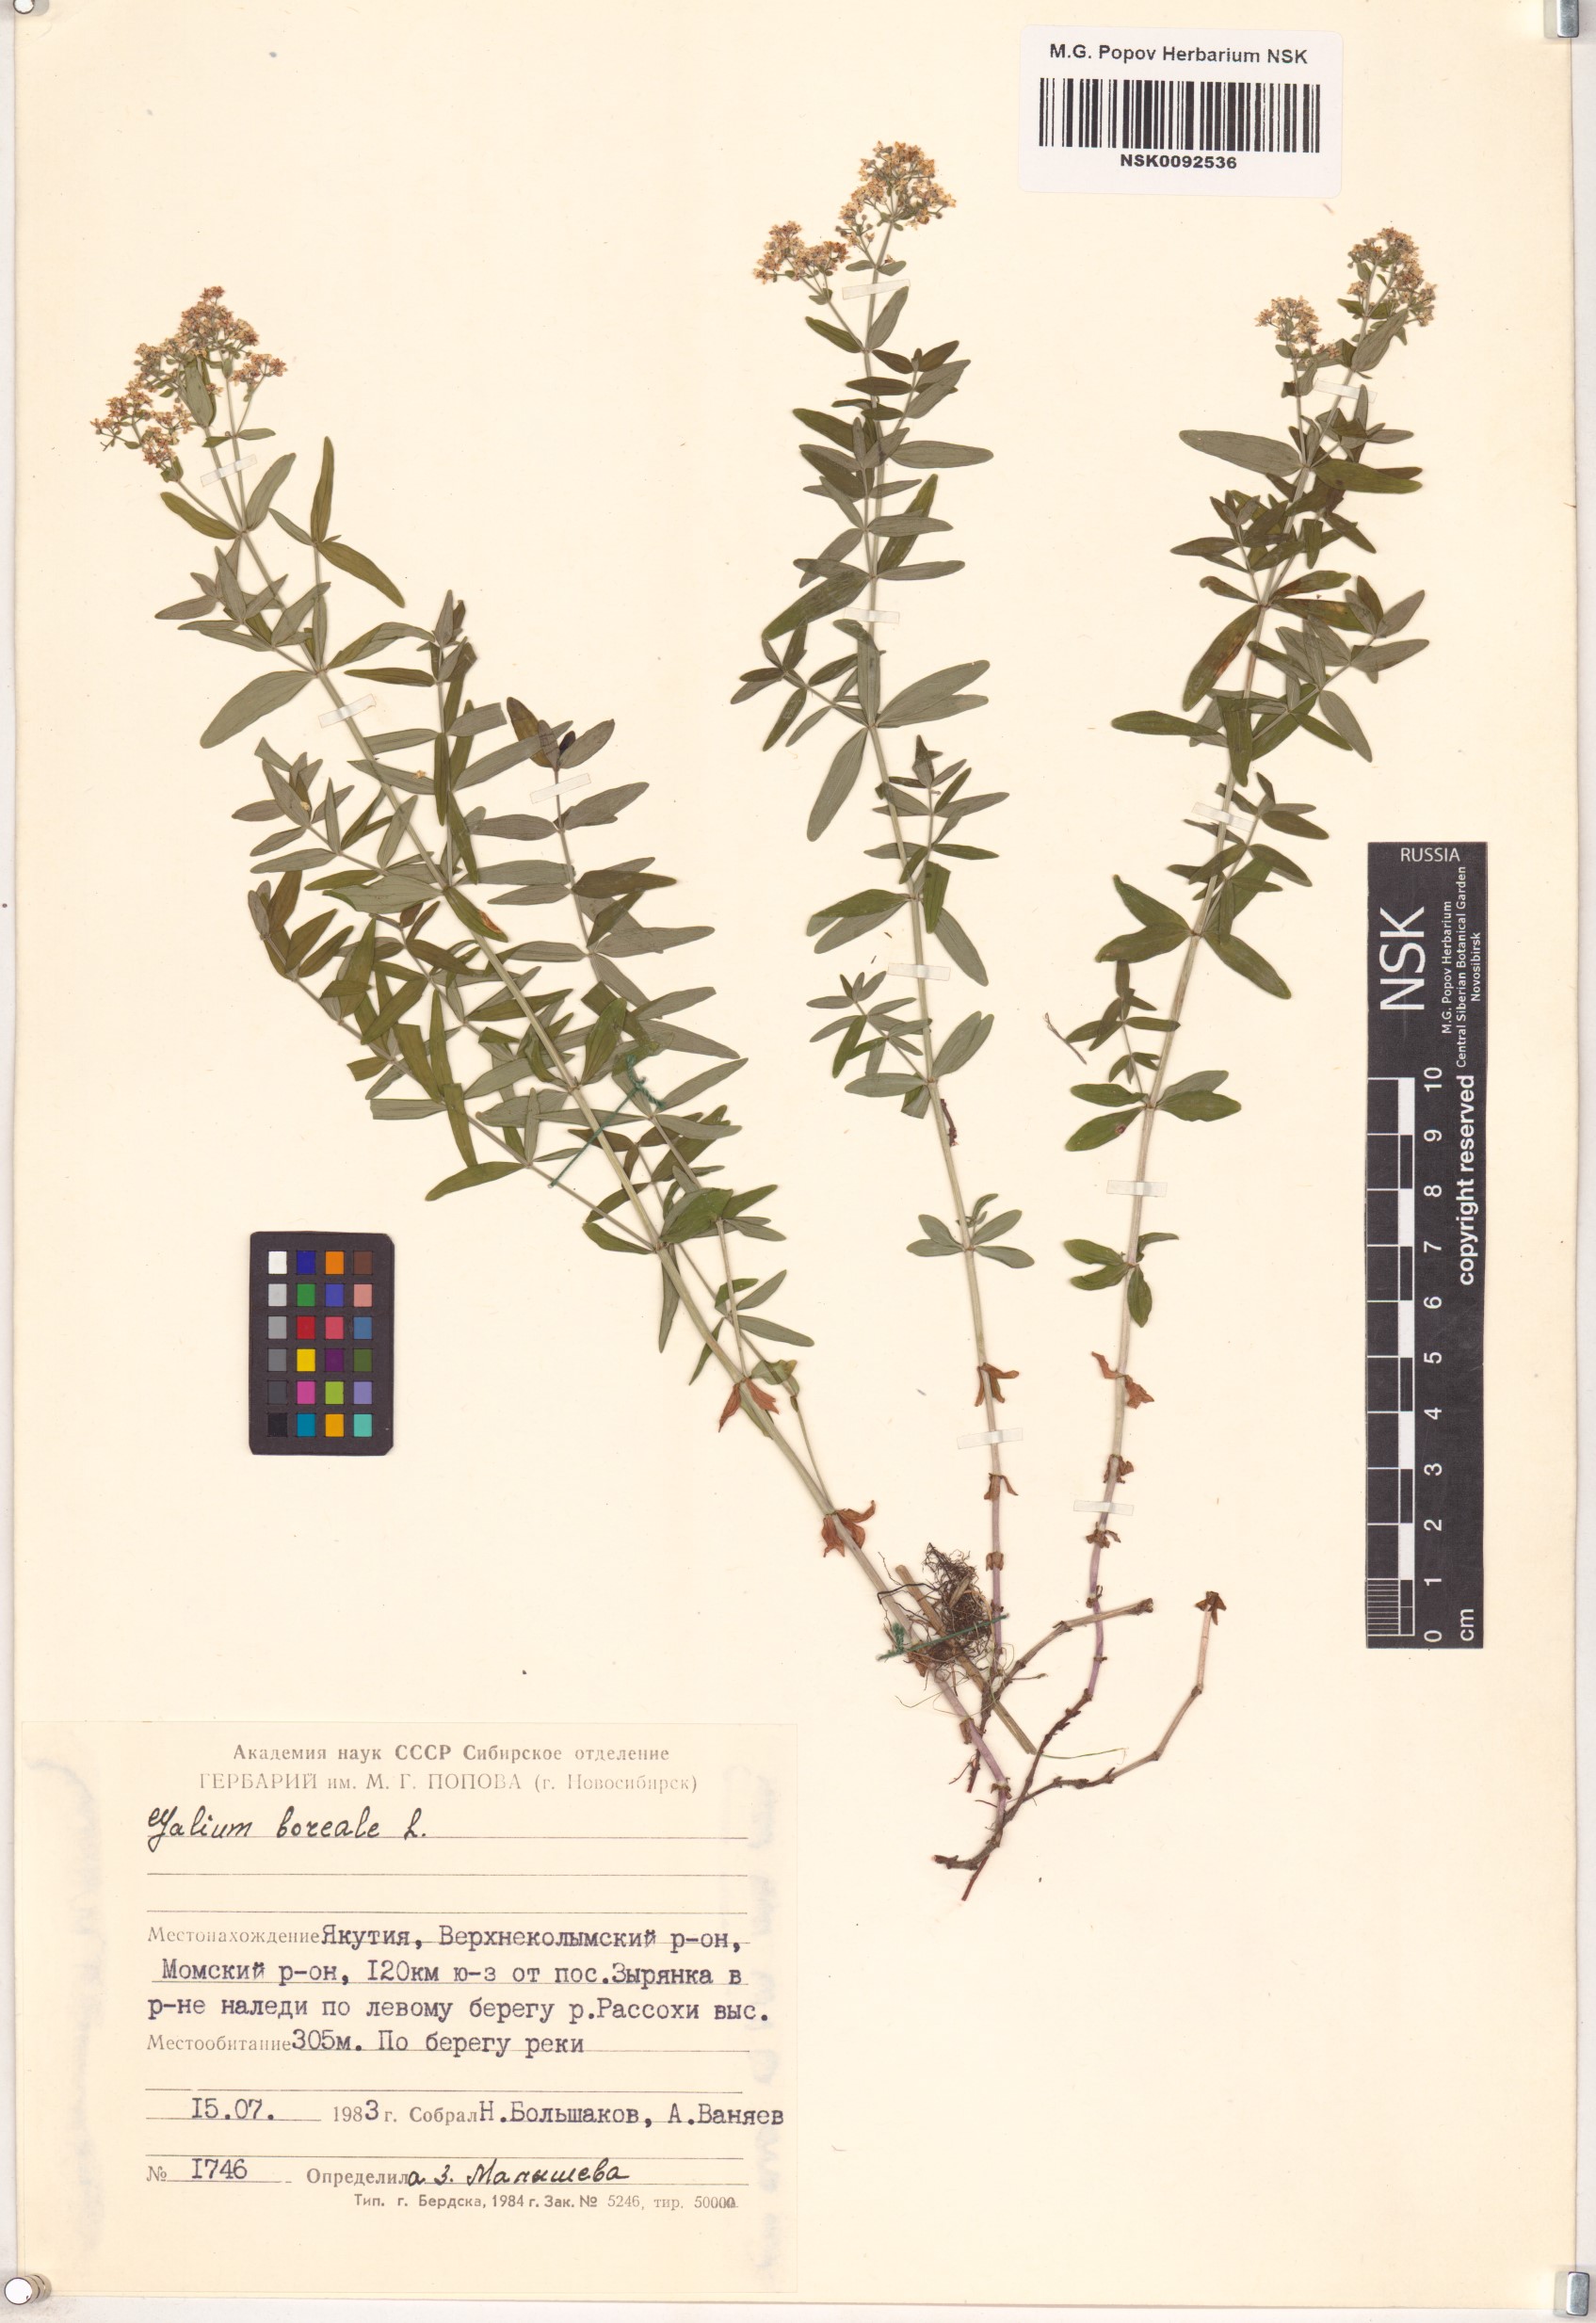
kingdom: Plantae
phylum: Tracheophyta
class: Magnoliopsida
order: Gentianales
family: Rubiaceae
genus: Galium
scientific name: Galium boreale
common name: Northern bedstraw
